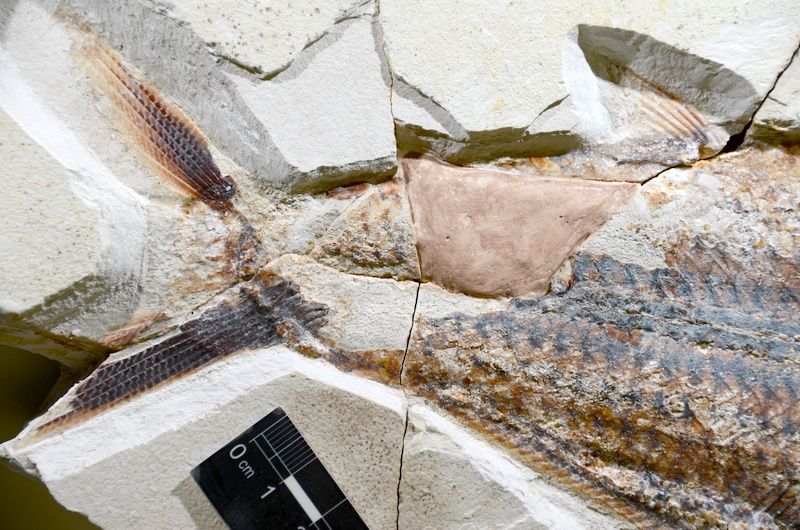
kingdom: Animalia
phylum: Chordata
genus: Thrissops
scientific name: Thrissops formosus
